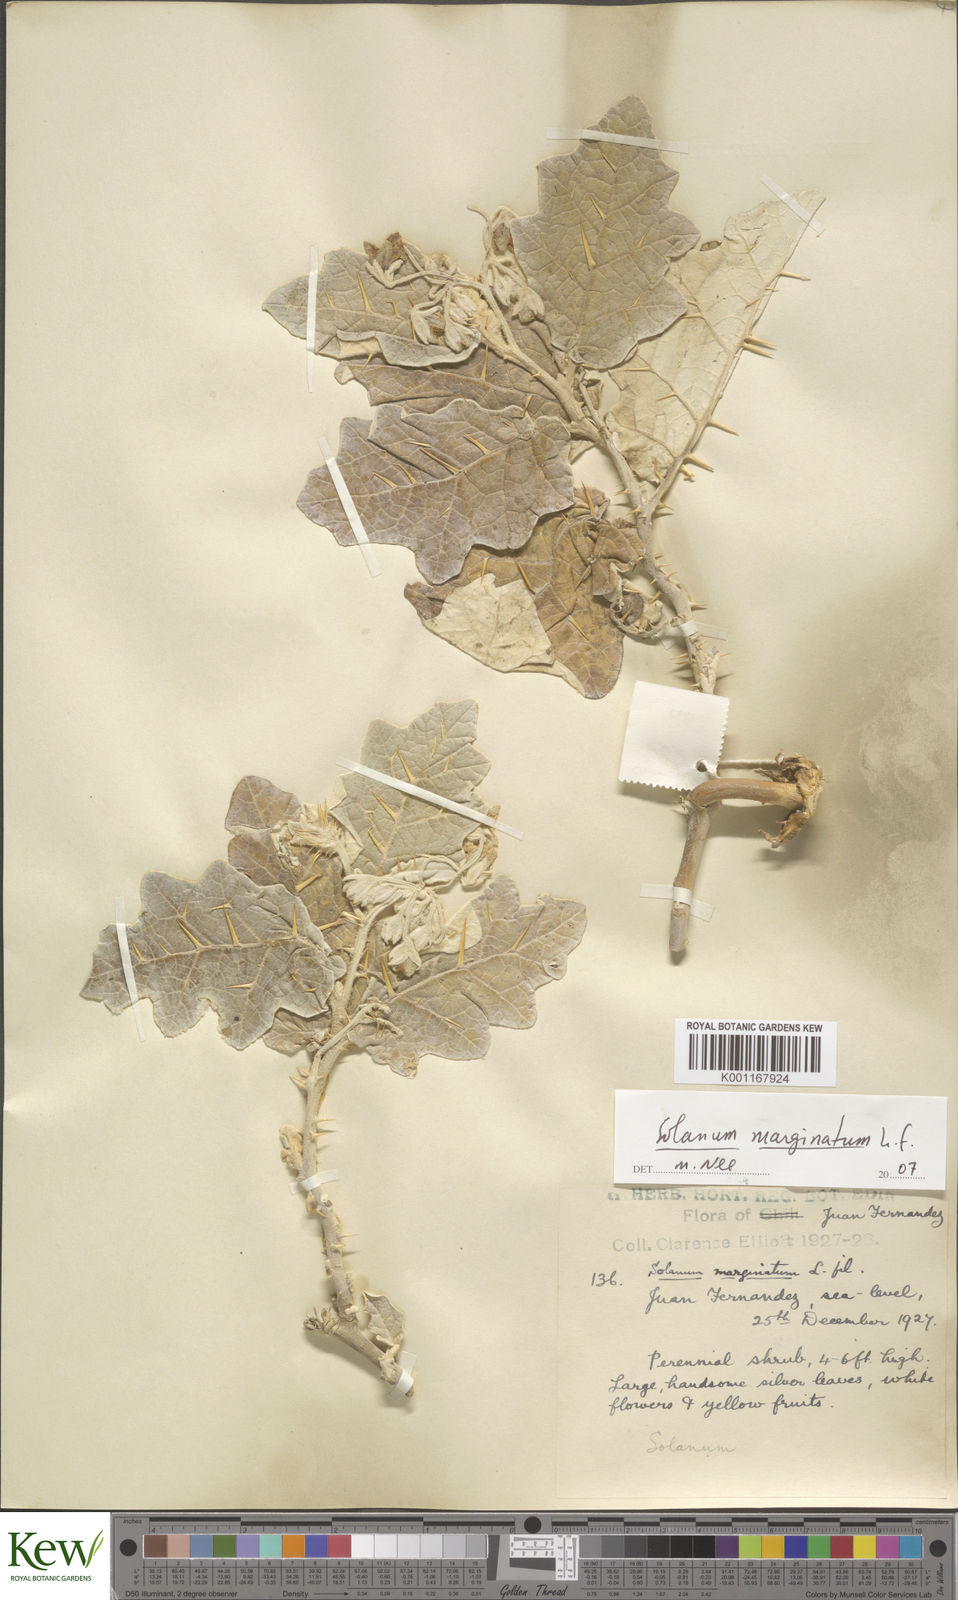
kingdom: Plantae
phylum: Tracheophyta
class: Magnoliopsida
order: Solanales
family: Solanaceae
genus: Solanum
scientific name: Solanum marginatum
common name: Purple african nightshade
